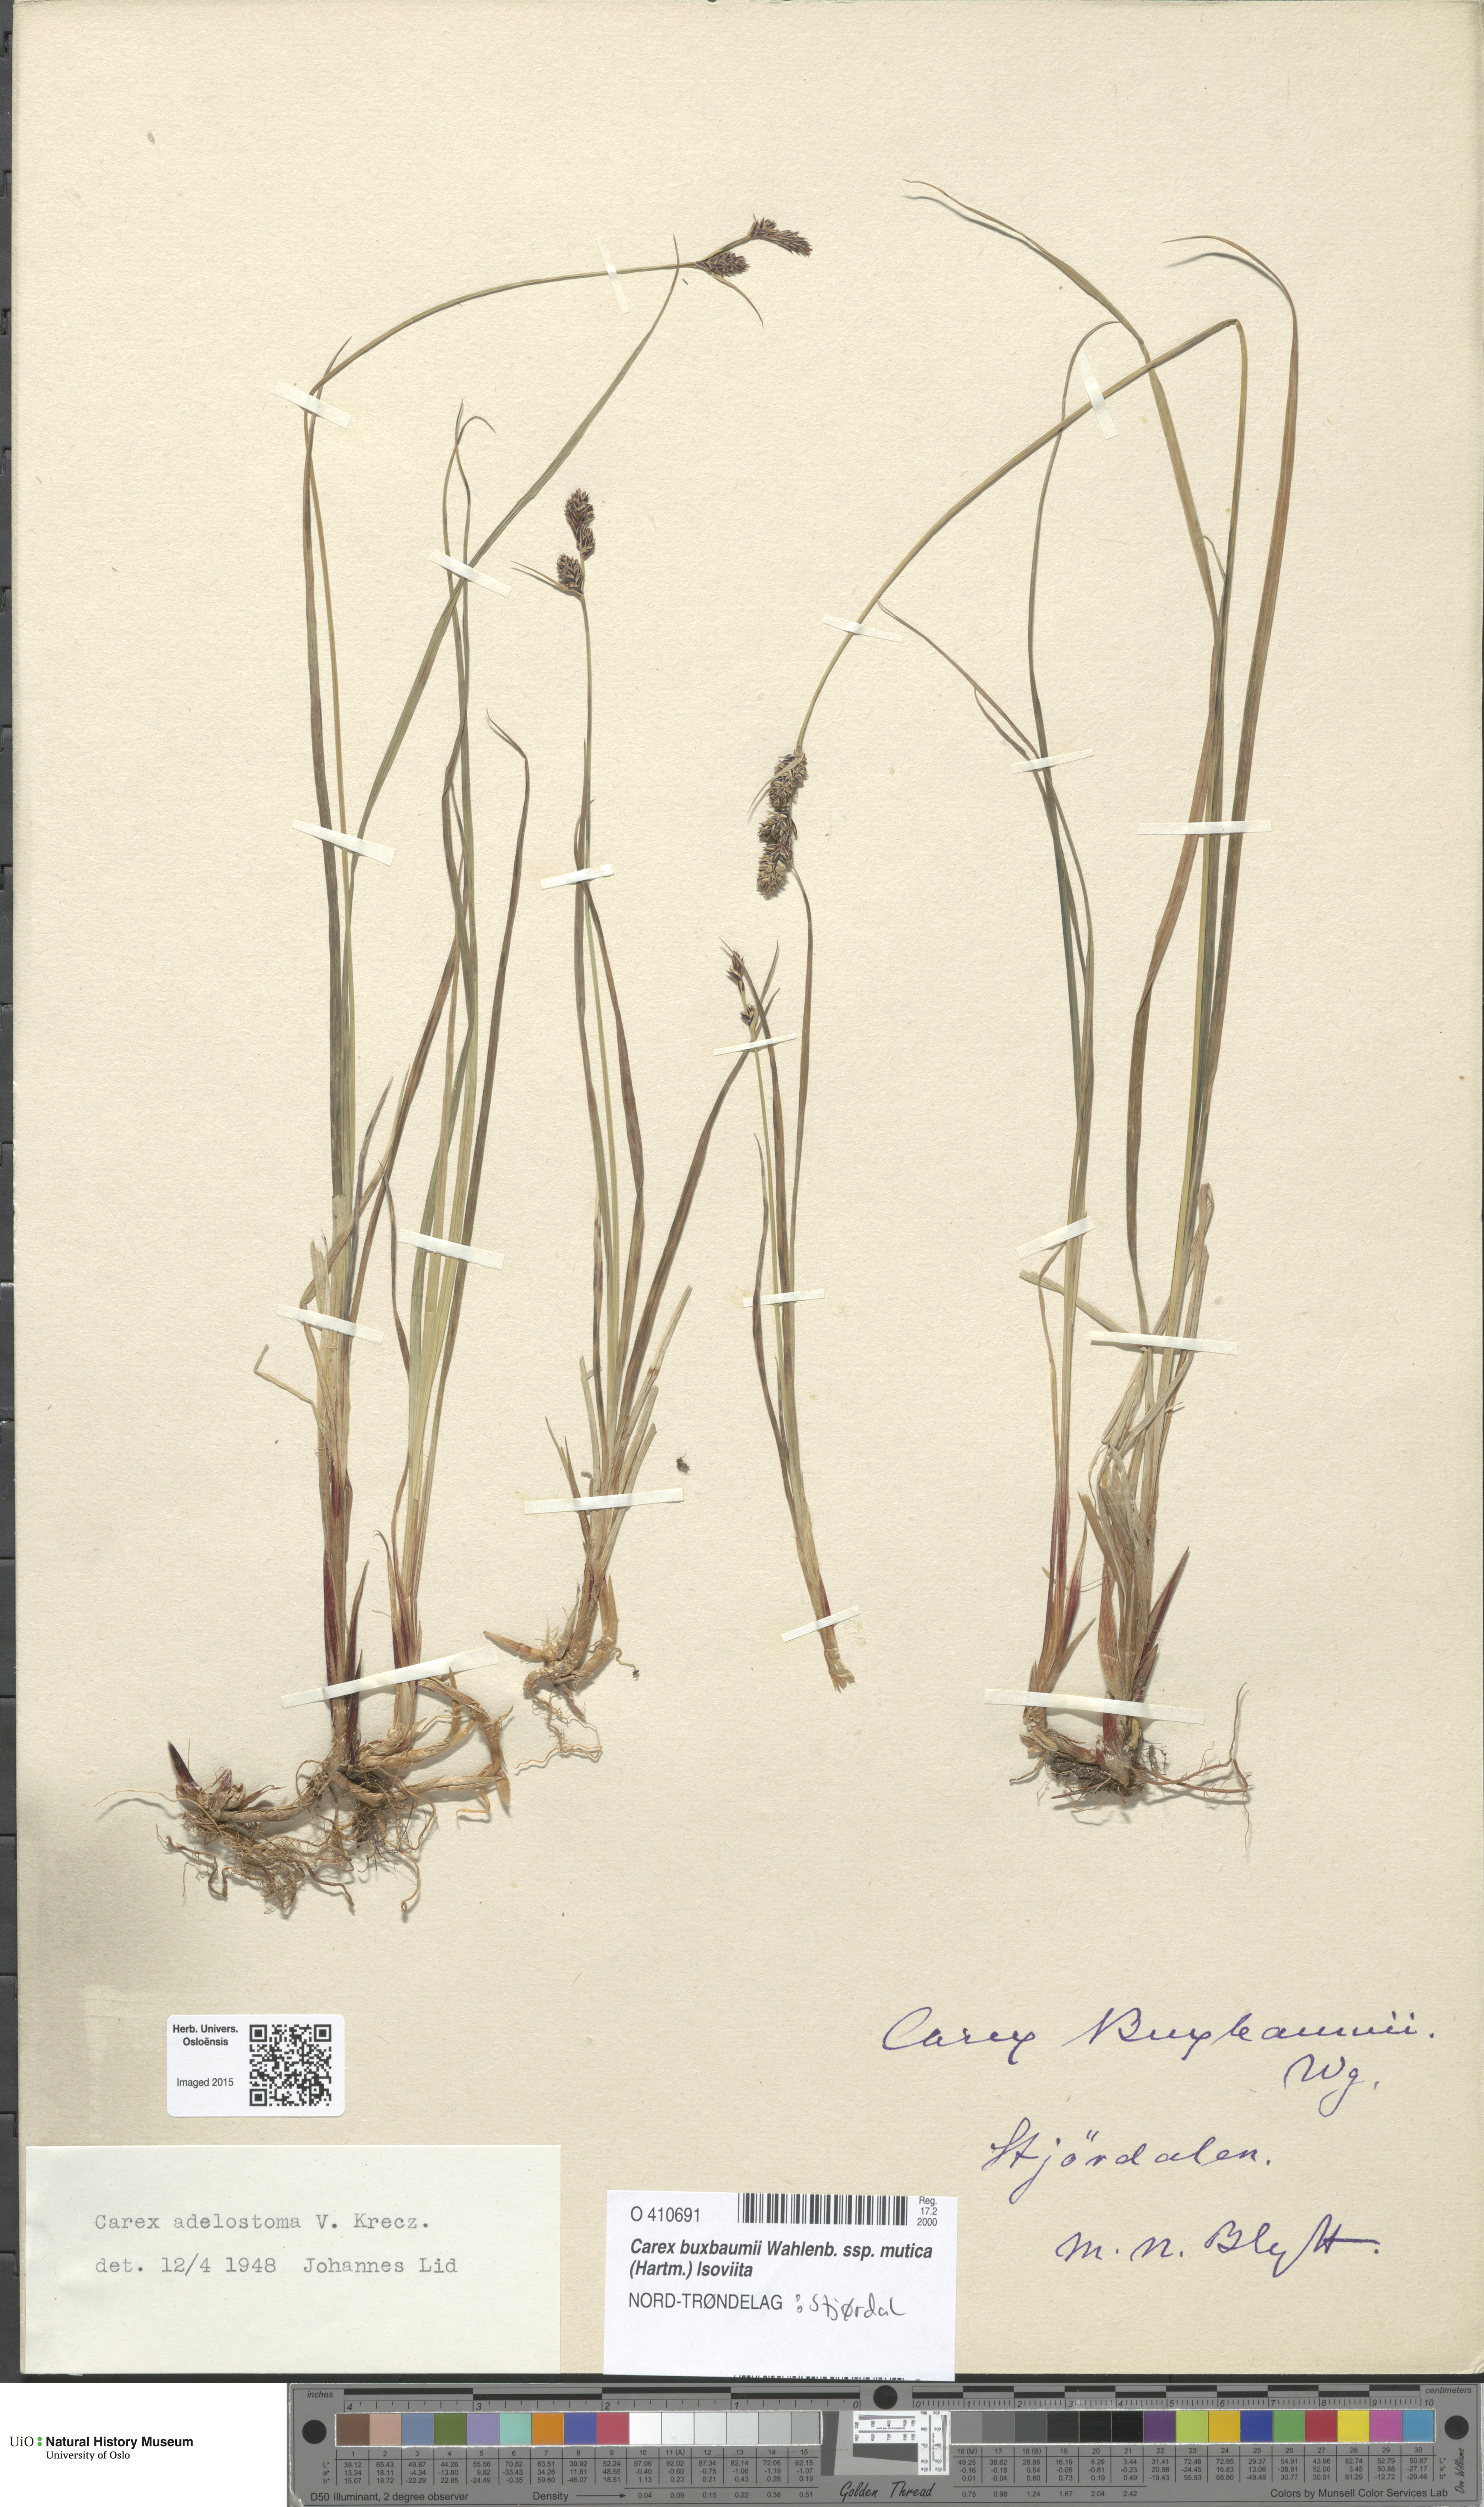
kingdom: Plantae
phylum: Tracheophyta
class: Liliopsida
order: Poales
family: Cyperaceae
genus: Carex
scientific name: Carex adelostoma
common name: Circumpolar sedge
